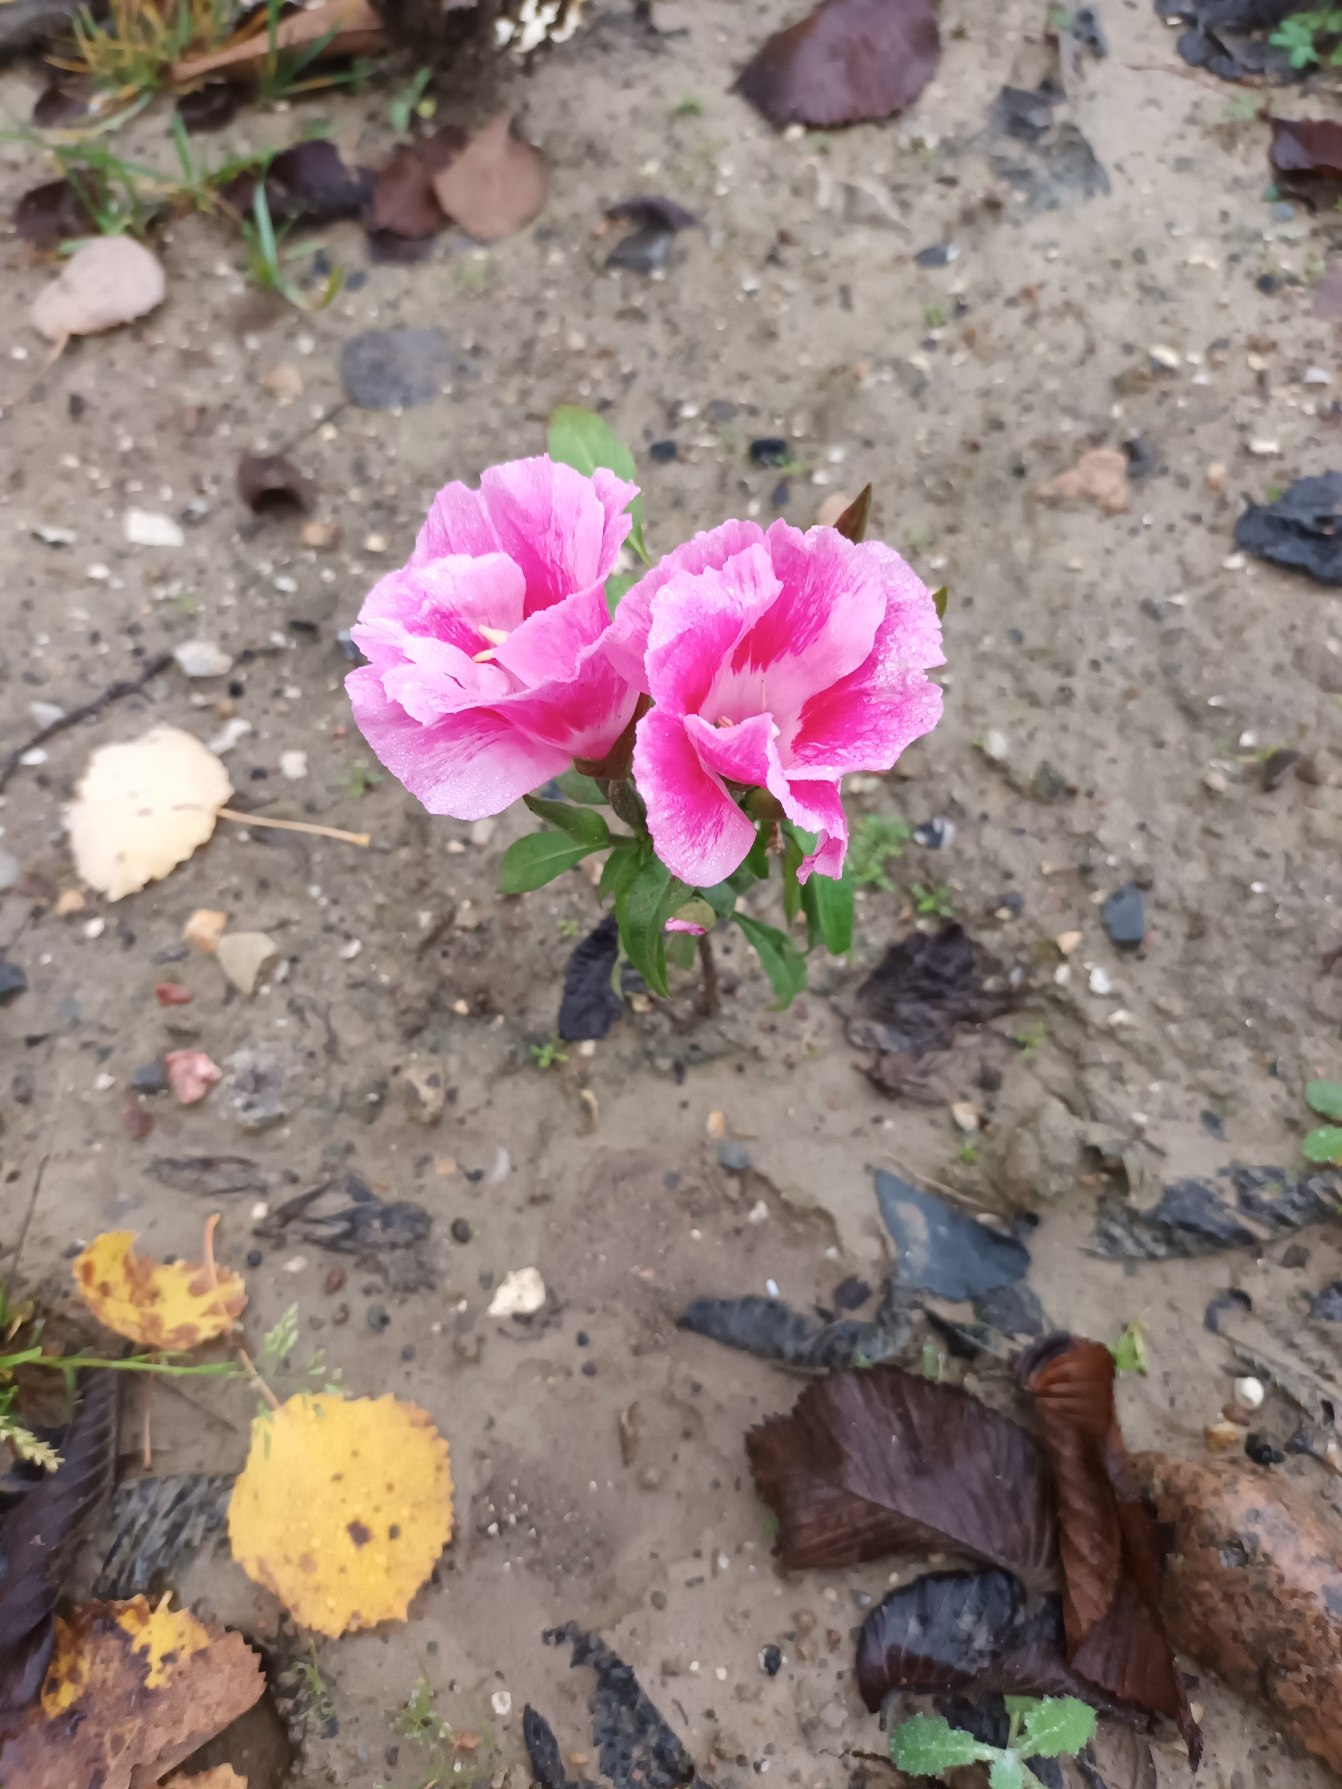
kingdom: Plantae
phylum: Tracheophyta
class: Magnoliopsida
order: Myrtales
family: Onagraceae
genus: Clarkia
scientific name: Clarkia amoena
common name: Atlaskblomst
